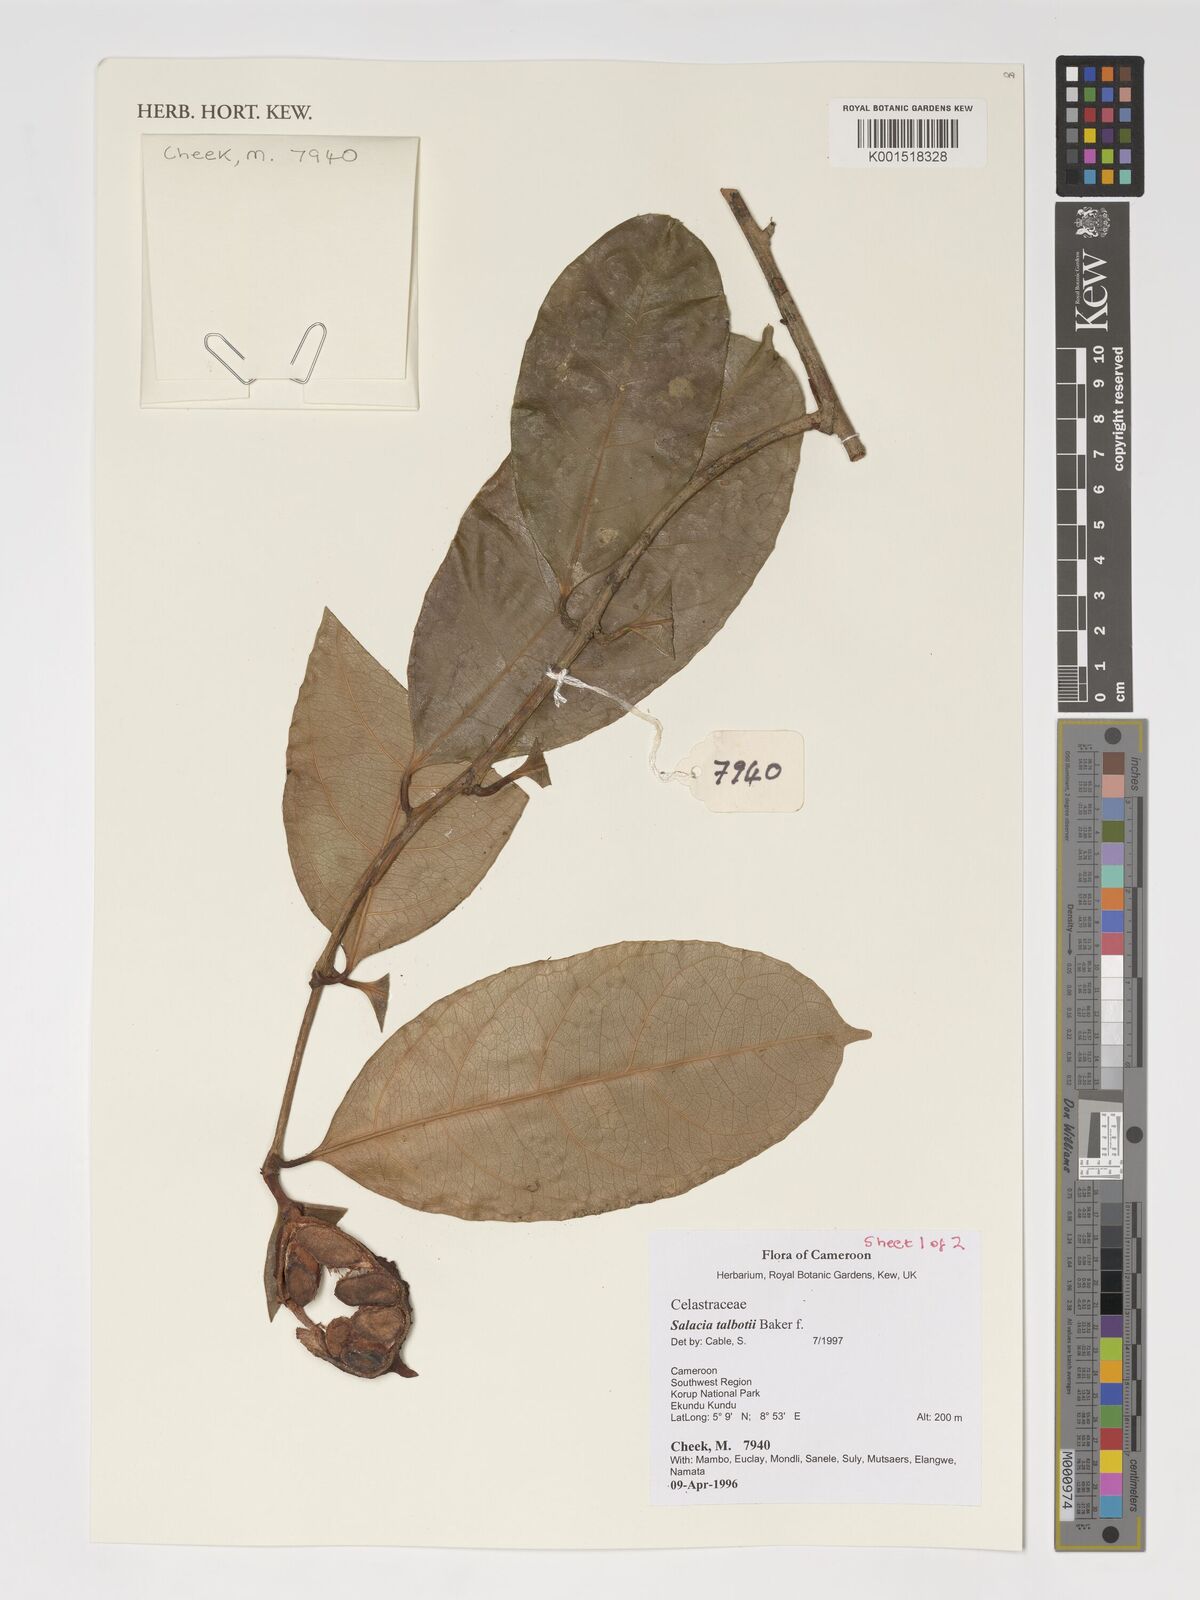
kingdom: Plantae
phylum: Tracheophyta
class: Magnoliopsida
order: Celastrales
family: Celastraceae
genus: Salacia
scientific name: Salacia talbotii
